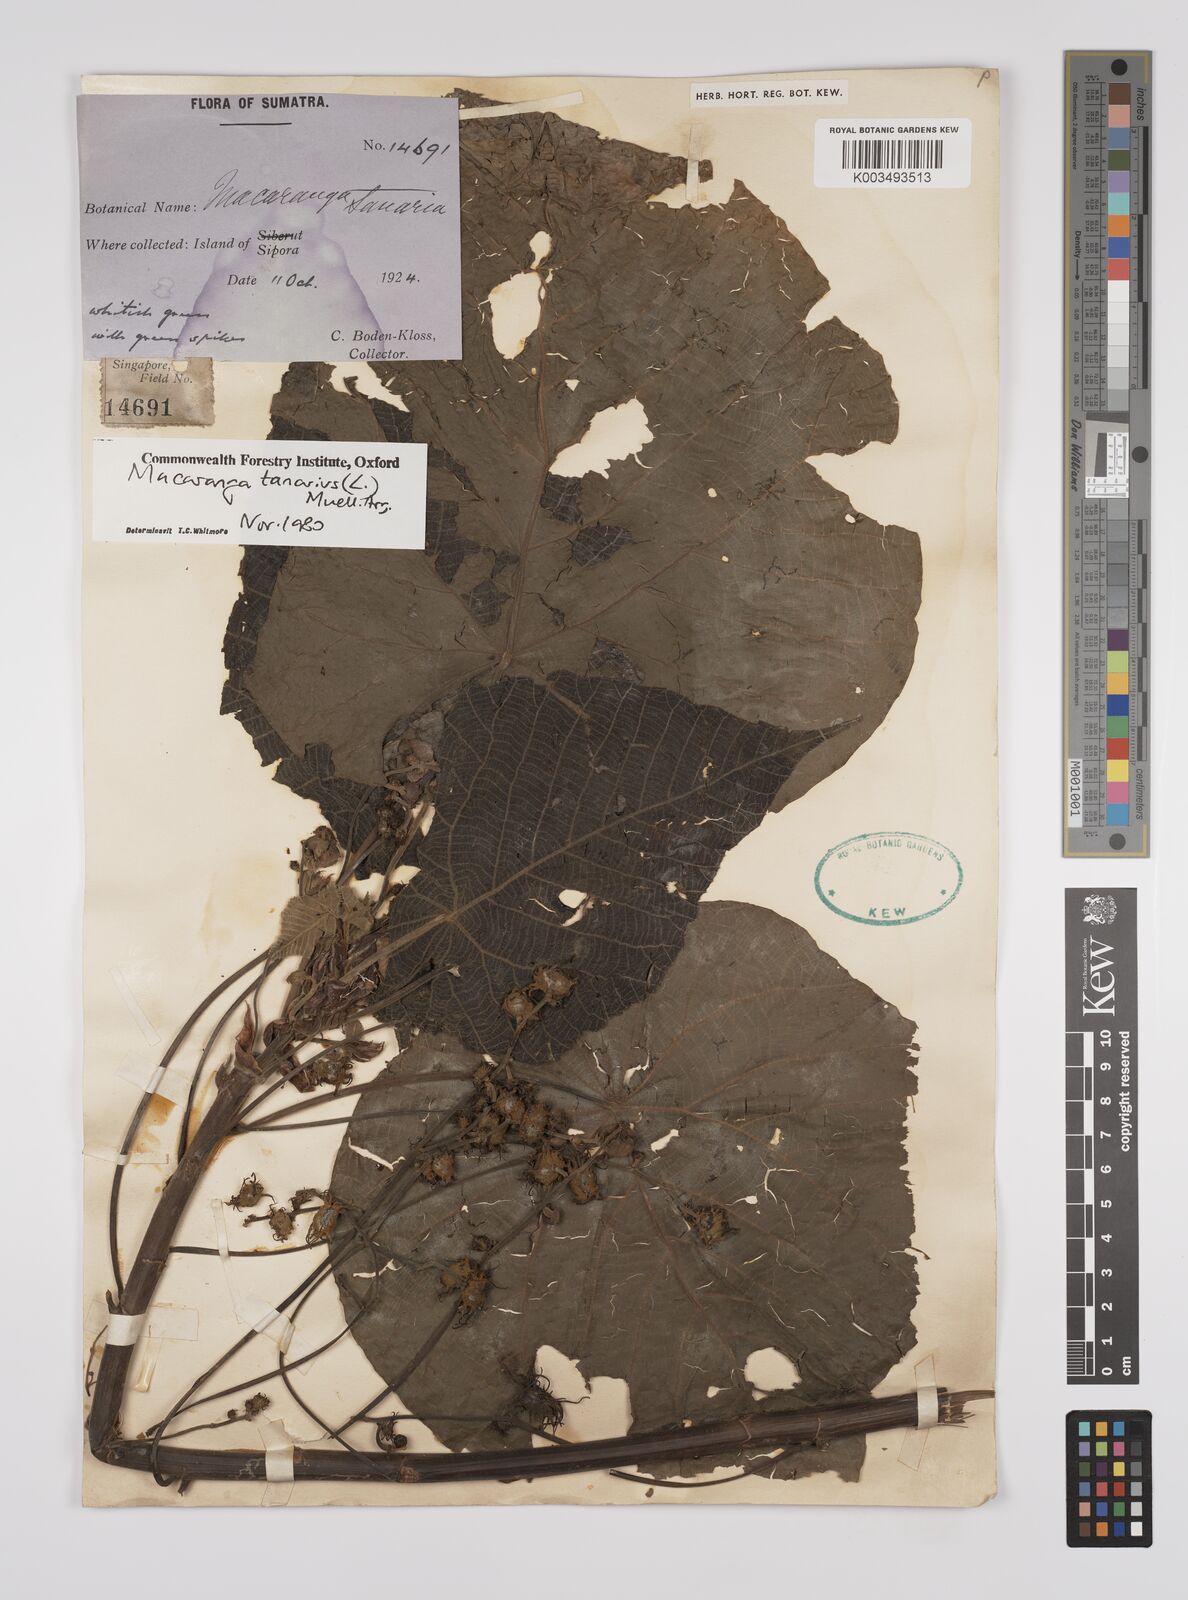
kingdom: Plantae
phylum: Tracheophyta
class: Magnoliopsida
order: Malpighiales
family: Euphorbiaceae
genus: Macaranga
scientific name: Macaranga tanarius
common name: Parasol leaf tree
